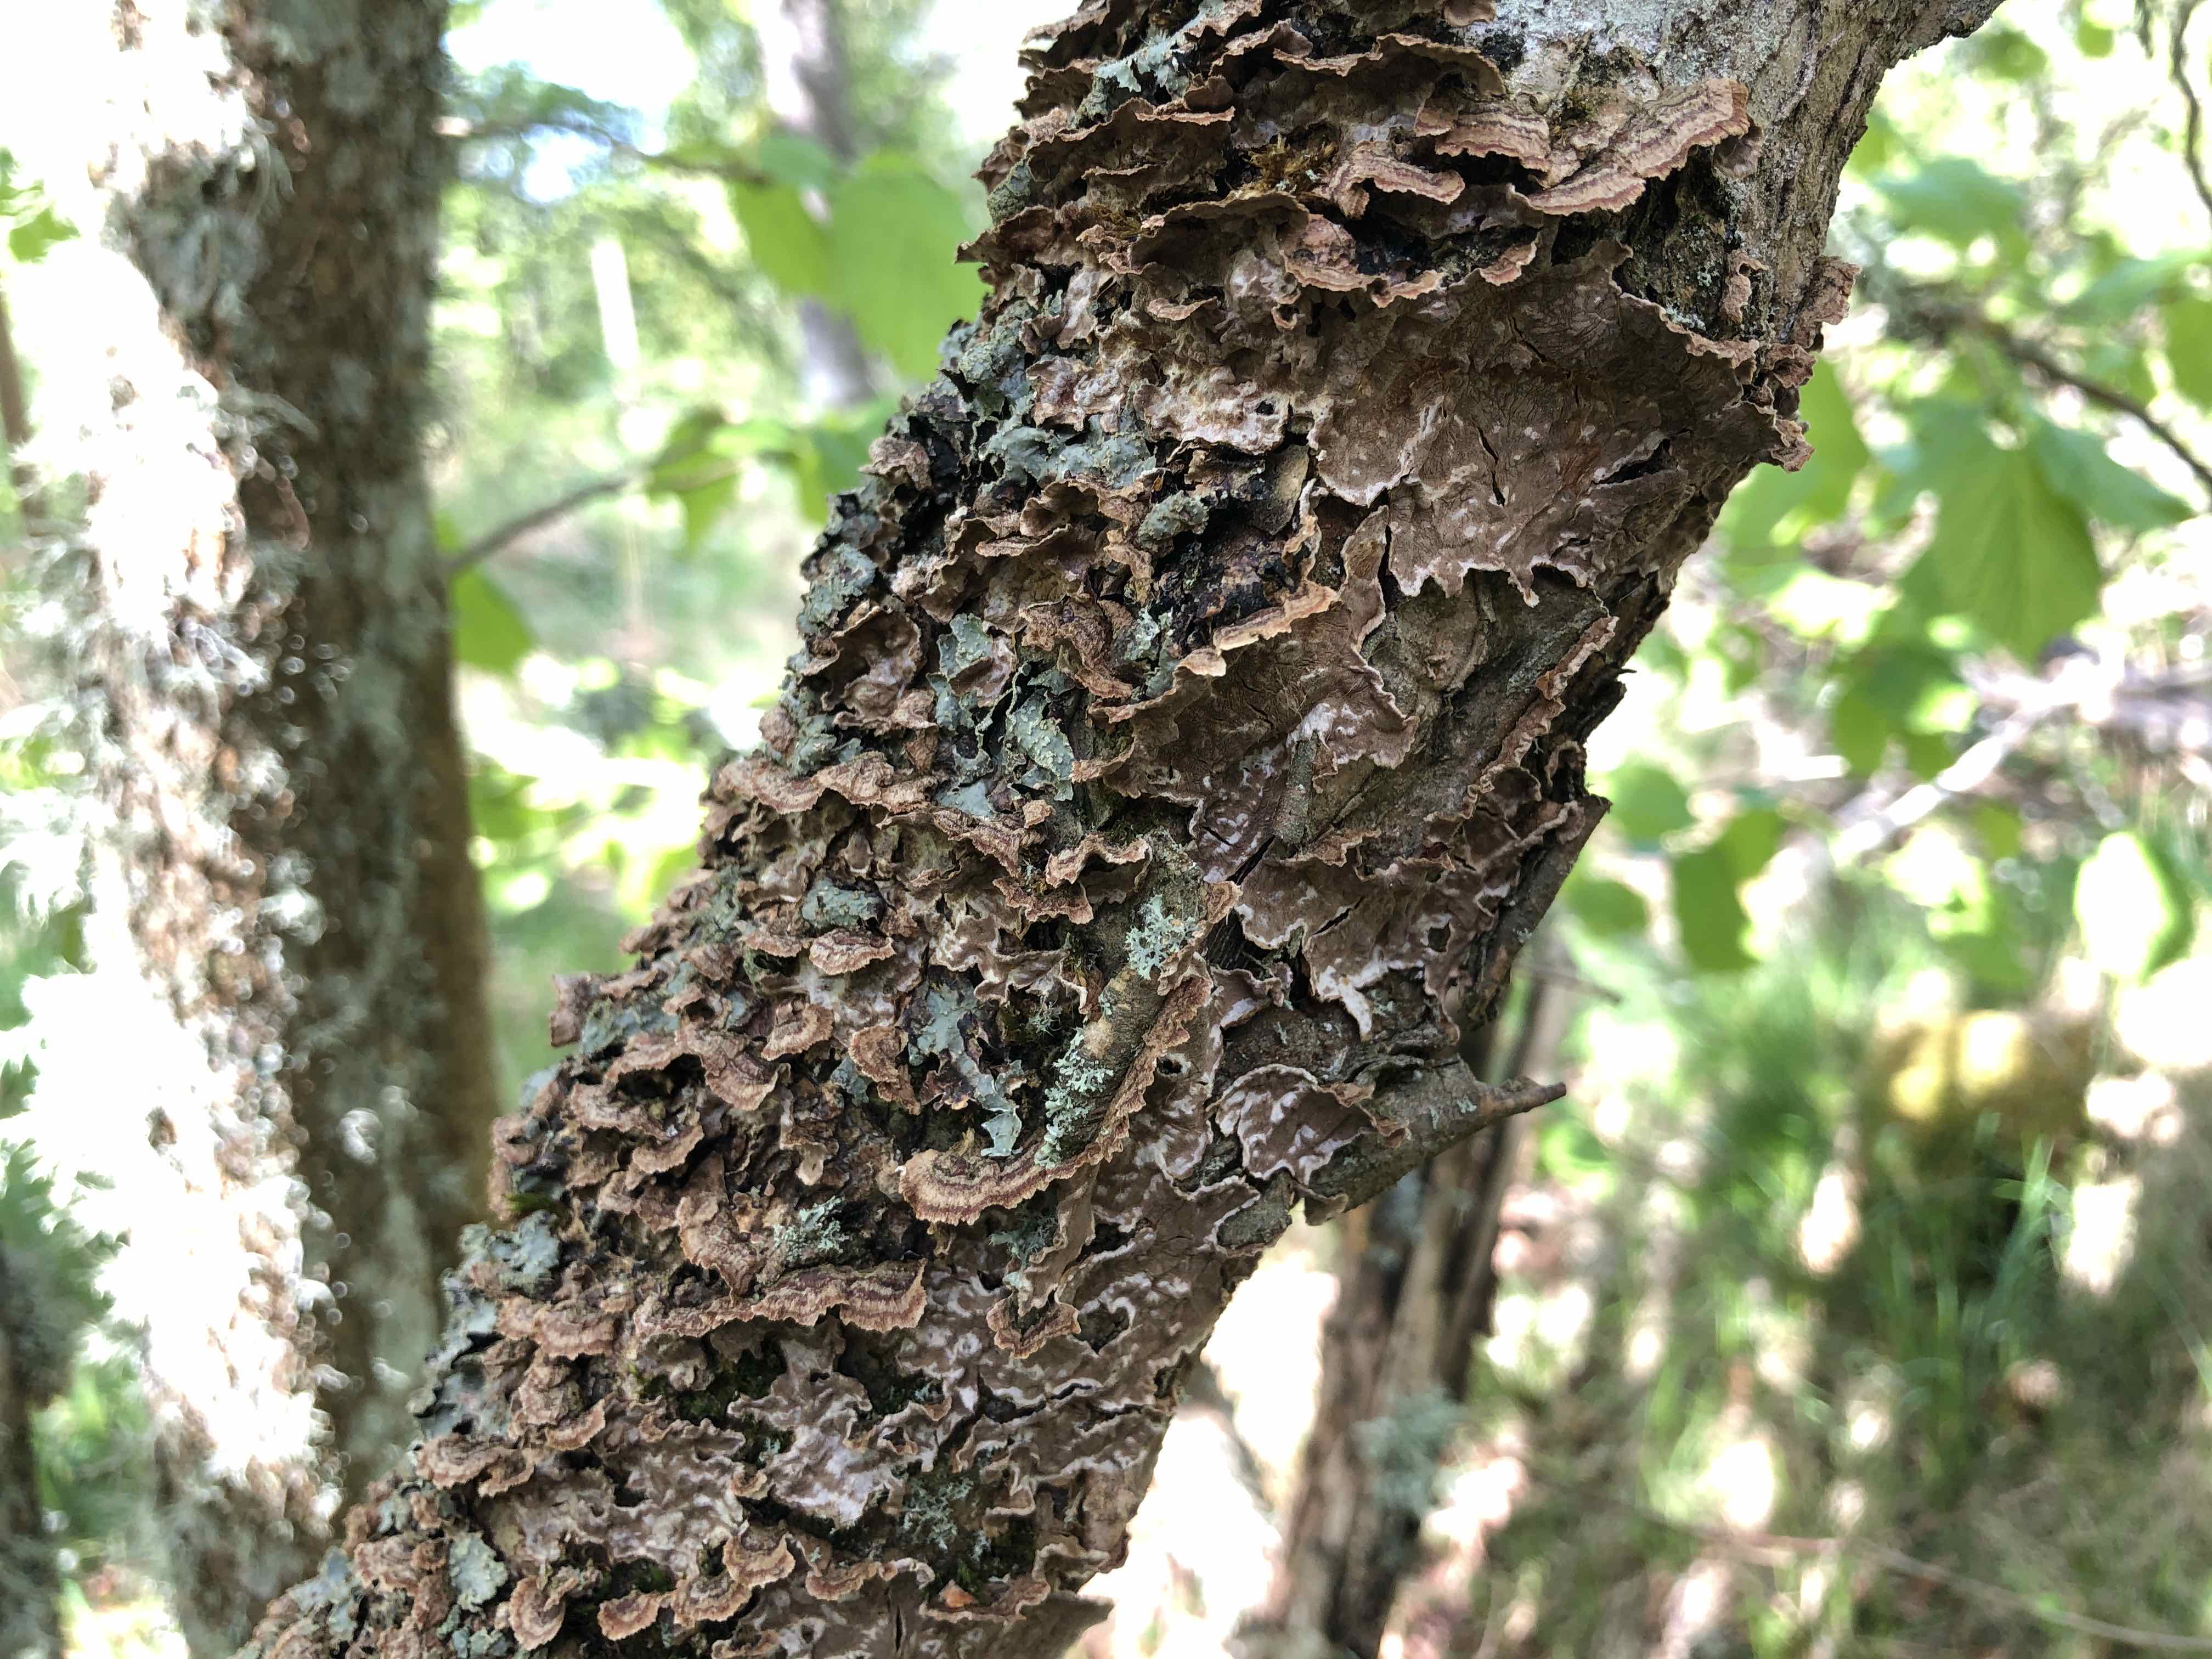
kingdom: Fungi
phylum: Basidiomycota
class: Agaricomycetes
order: Hymenochaetales
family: Hymenochaetaceae
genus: Hydnoporia
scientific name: Hydnoporia tabacina
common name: tobaksbrun ruslædersvamp
